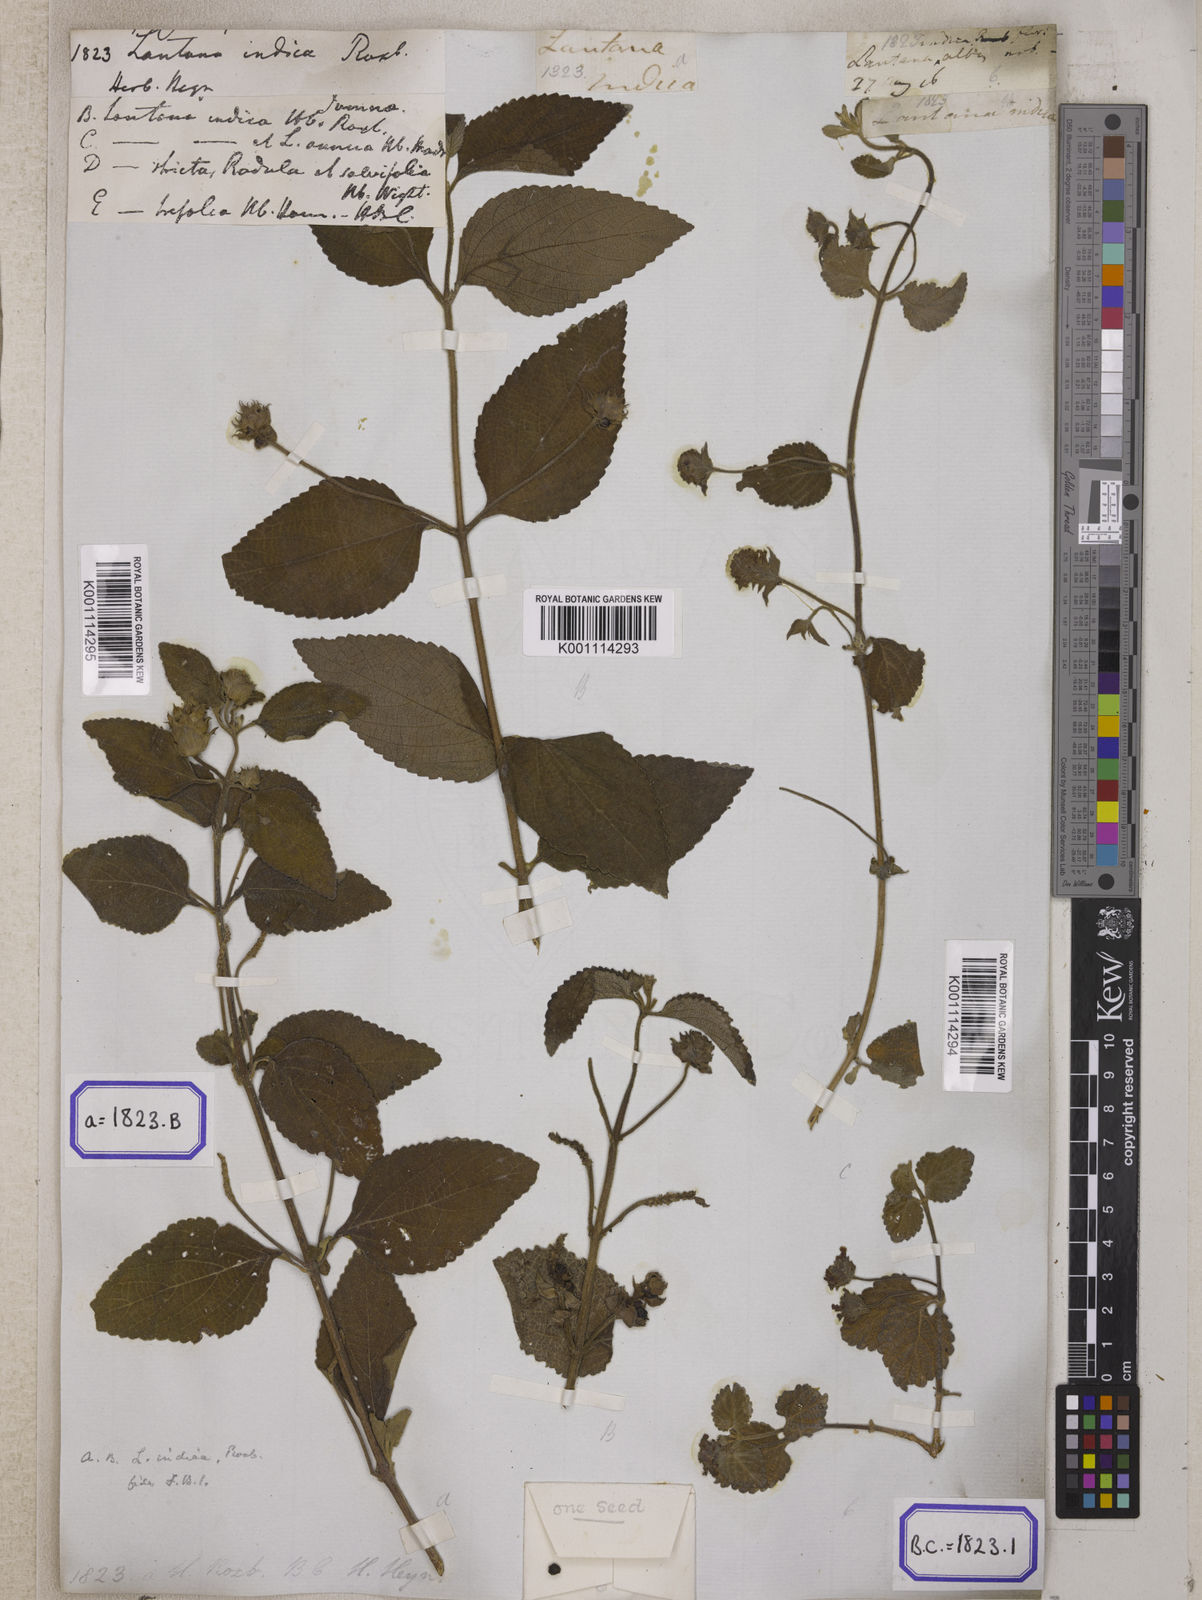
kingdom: Plantae
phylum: Tracheophyta
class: Magnoliopsida
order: Lamiales
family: Verbenaceae
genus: Lantana
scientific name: Lantana indica
